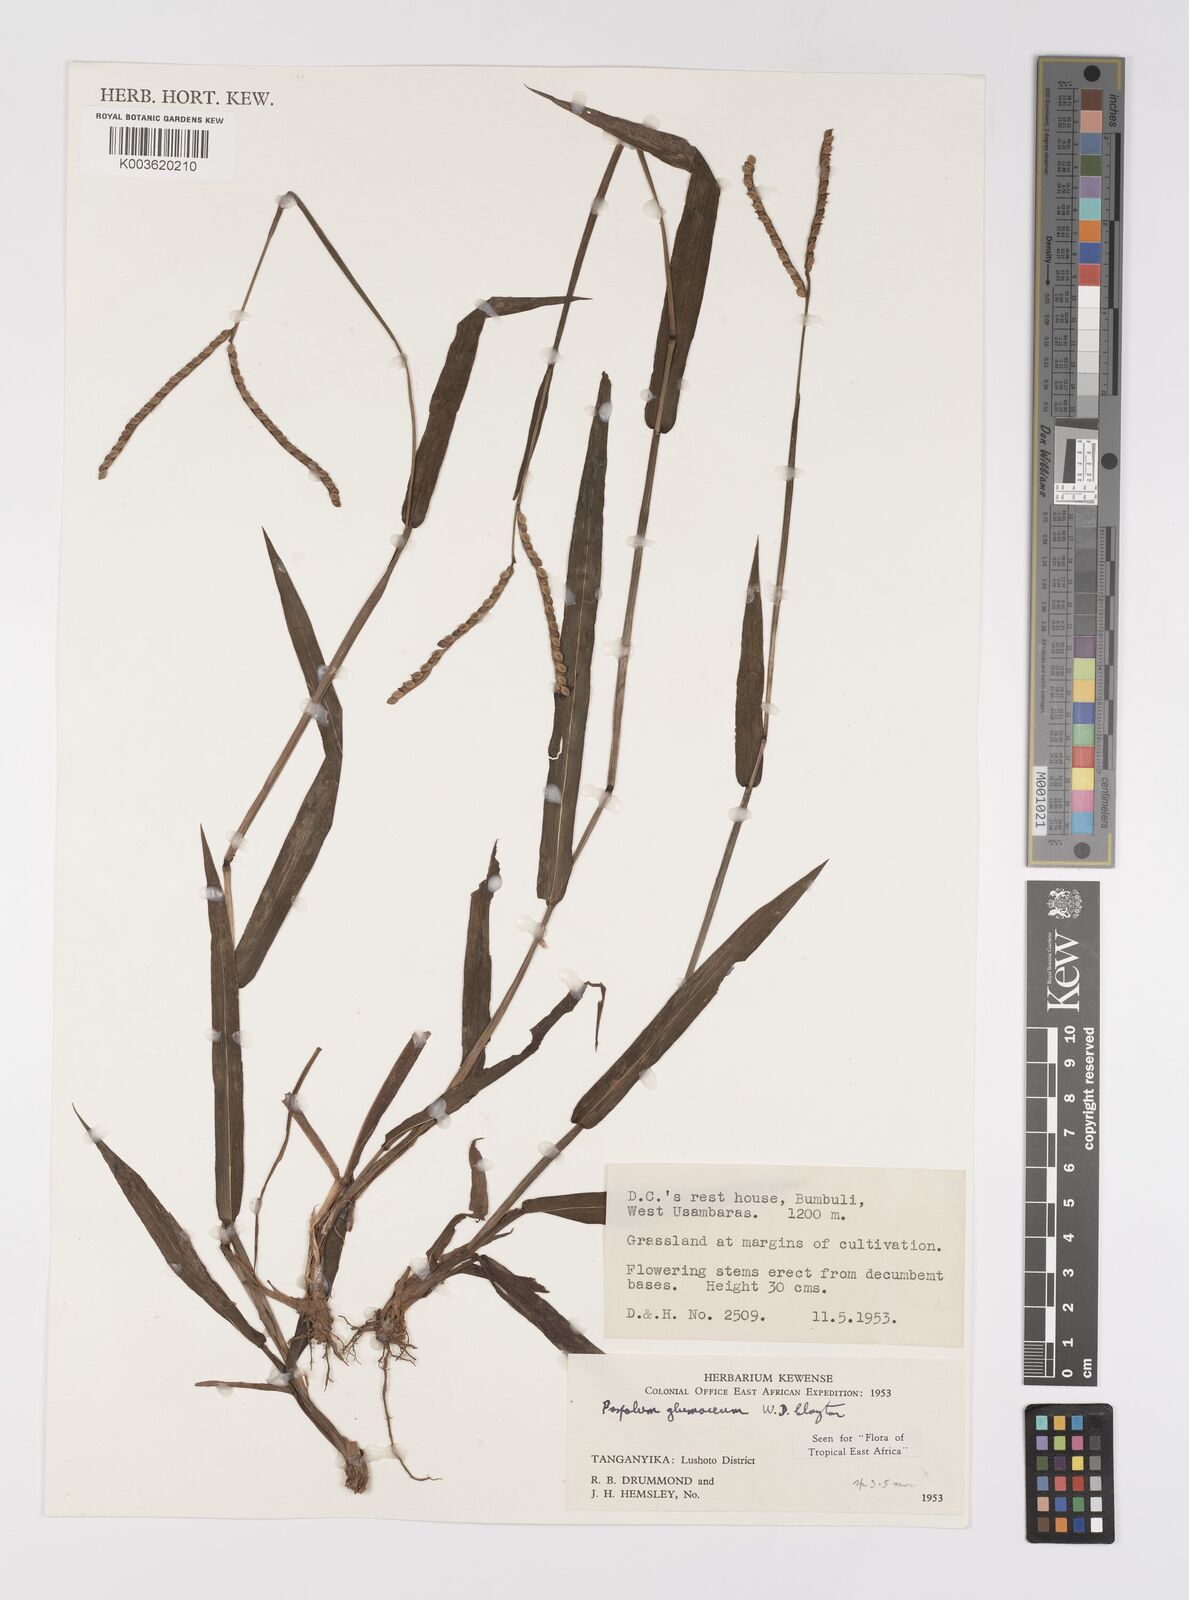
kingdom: Plantae
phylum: Tracheophyta
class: Liliopsida
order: Poales
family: Poaceae
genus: Paspalum
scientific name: Paspalum glumaceum
